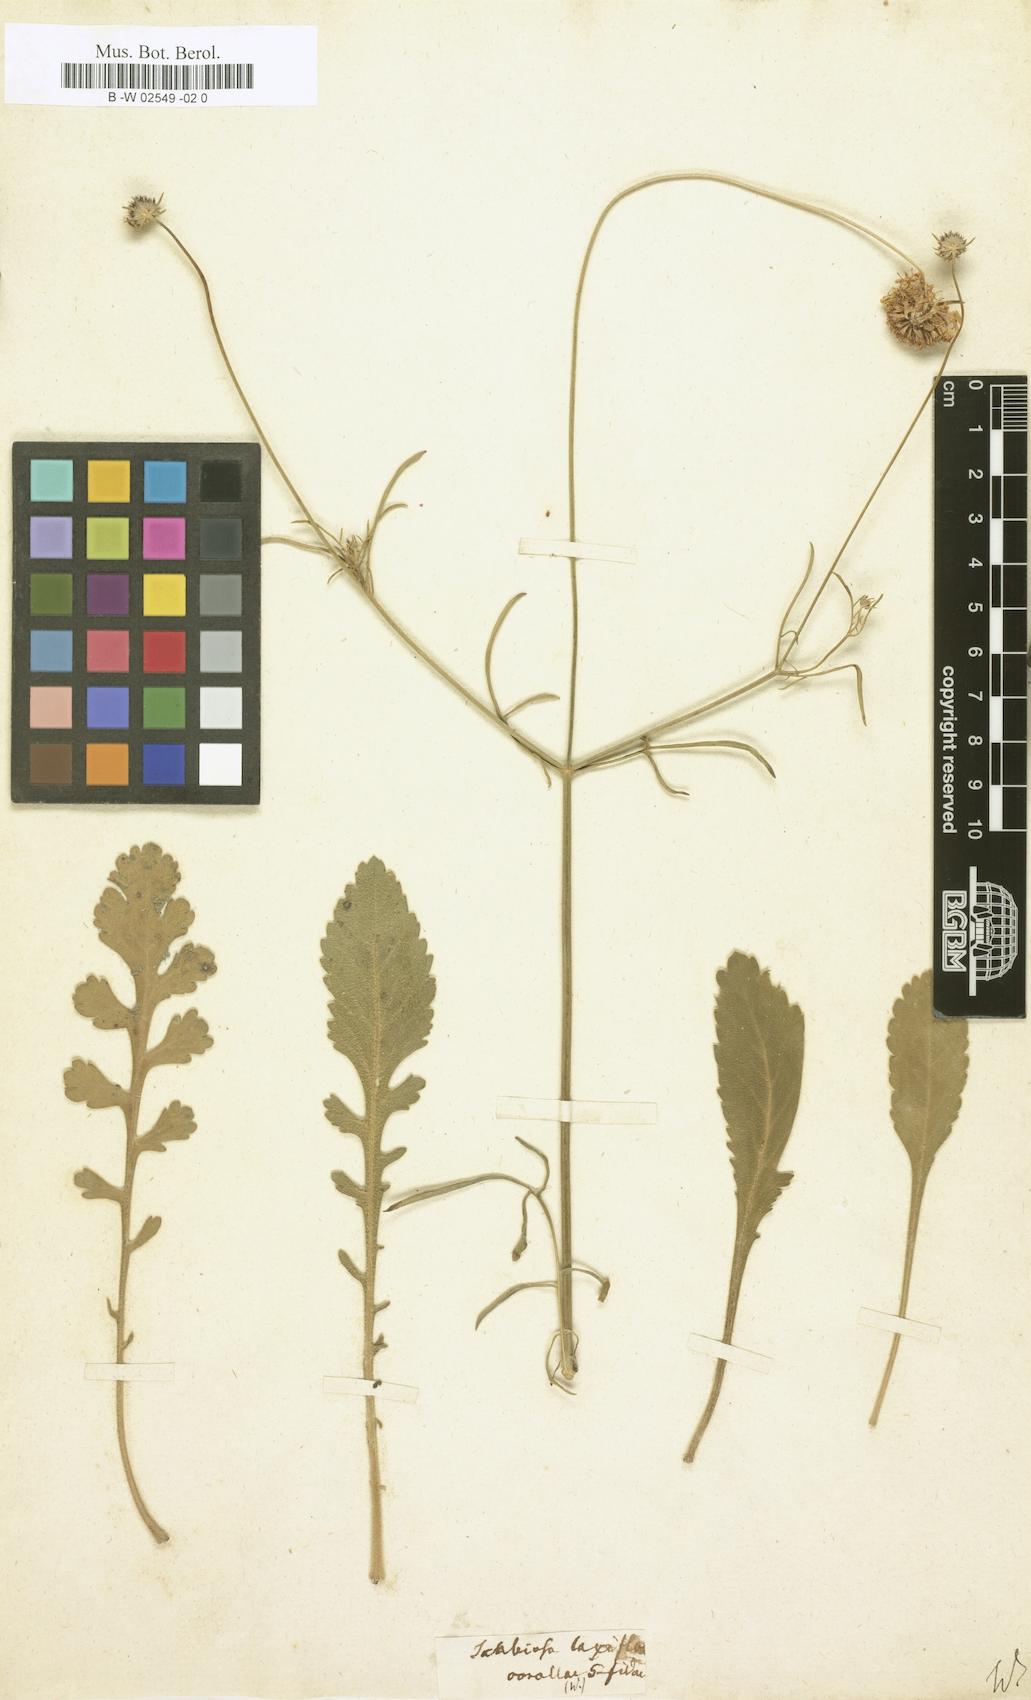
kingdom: Plantae
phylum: Tracheophyta
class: Magnoliopsida
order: Dipsacales
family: Caprifoliaceae
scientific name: Caprifoliaceae
